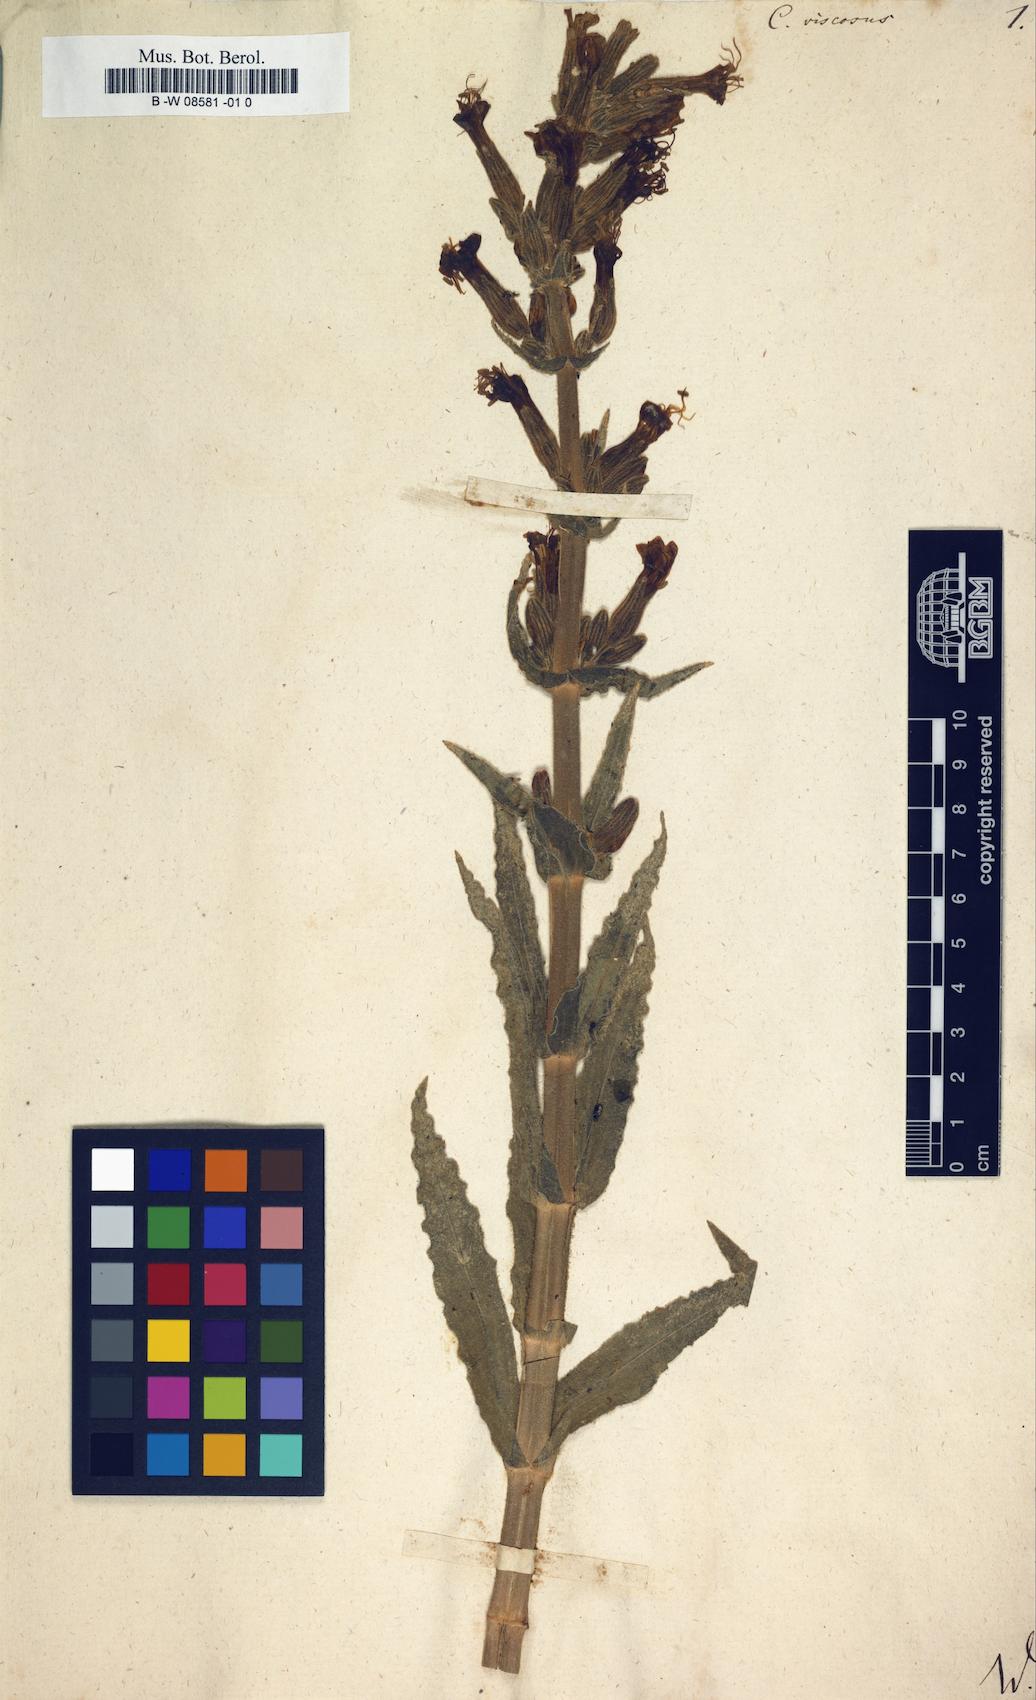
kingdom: Plantae
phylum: Tracheophyta
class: Magnoliopsida
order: Caryophyllales
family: Caryophyllaceae
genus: Silene
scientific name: Silene viscosa
